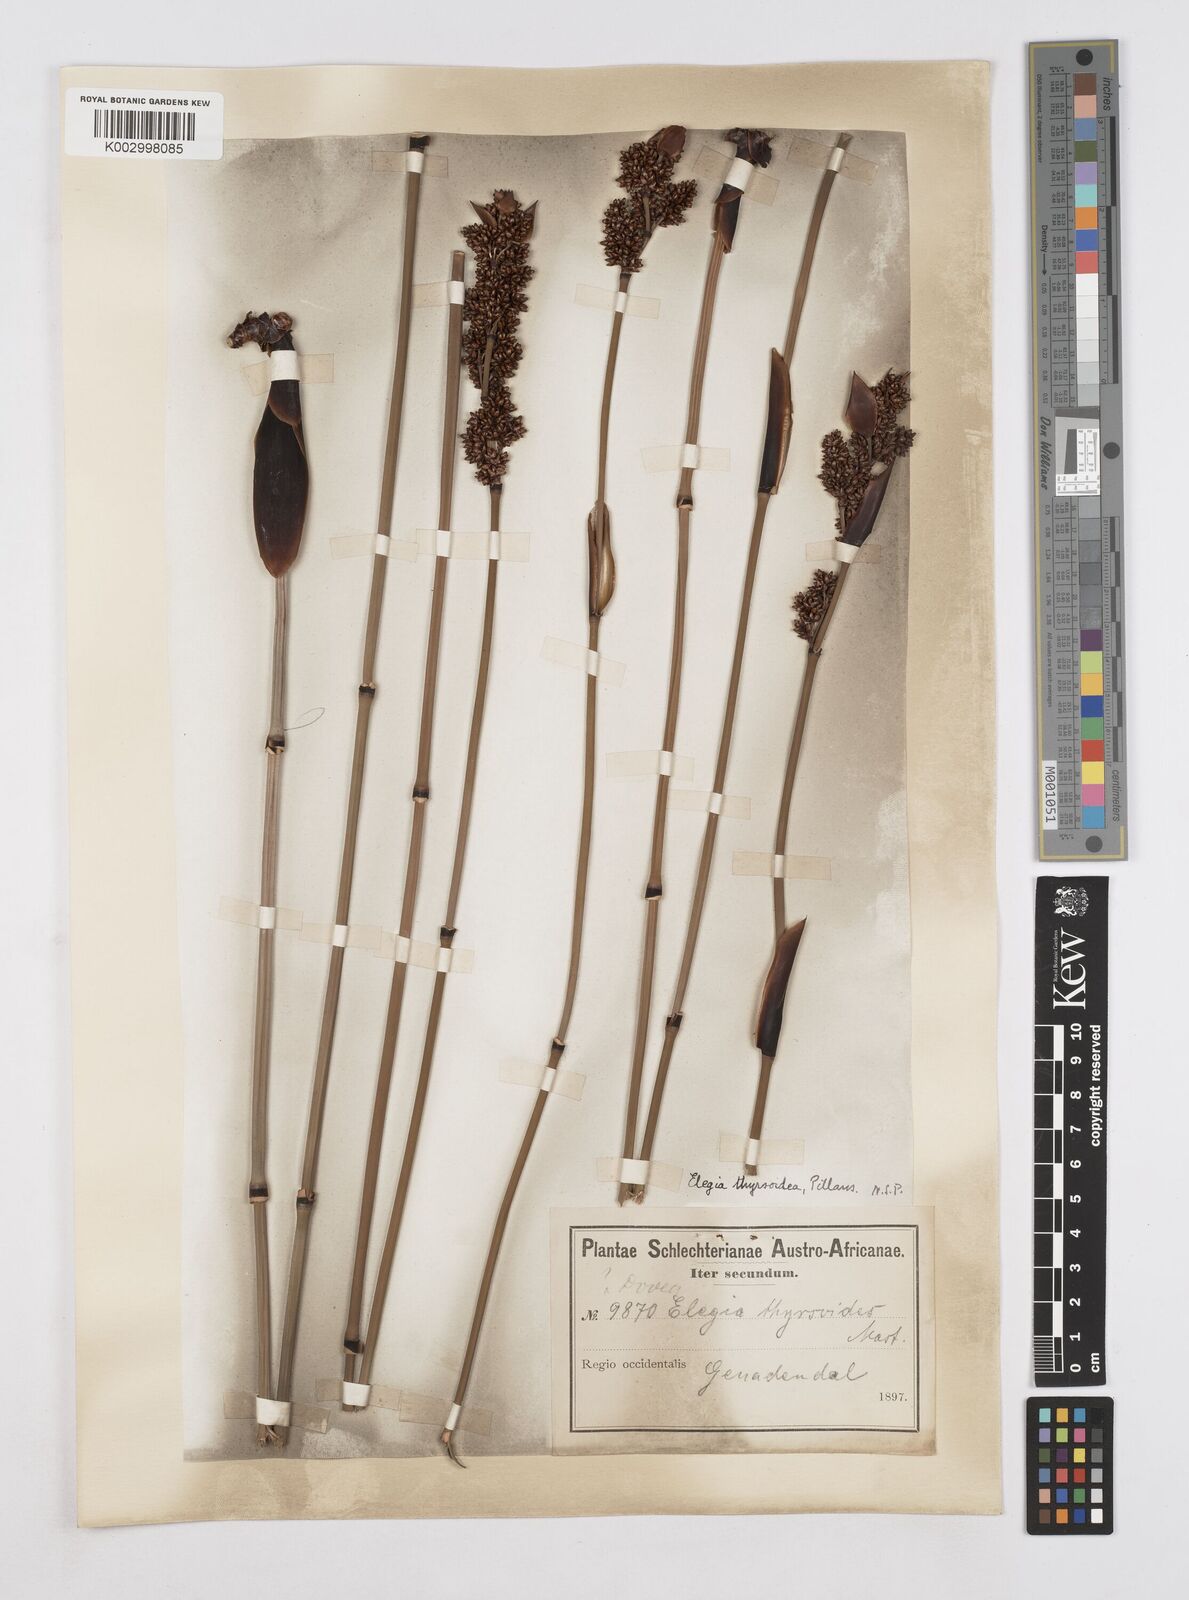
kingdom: Plantae
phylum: Tracheophyta
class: Liliopsida
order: Poales
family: Restionaceae
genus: Elegia
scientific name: Elegia deusta
